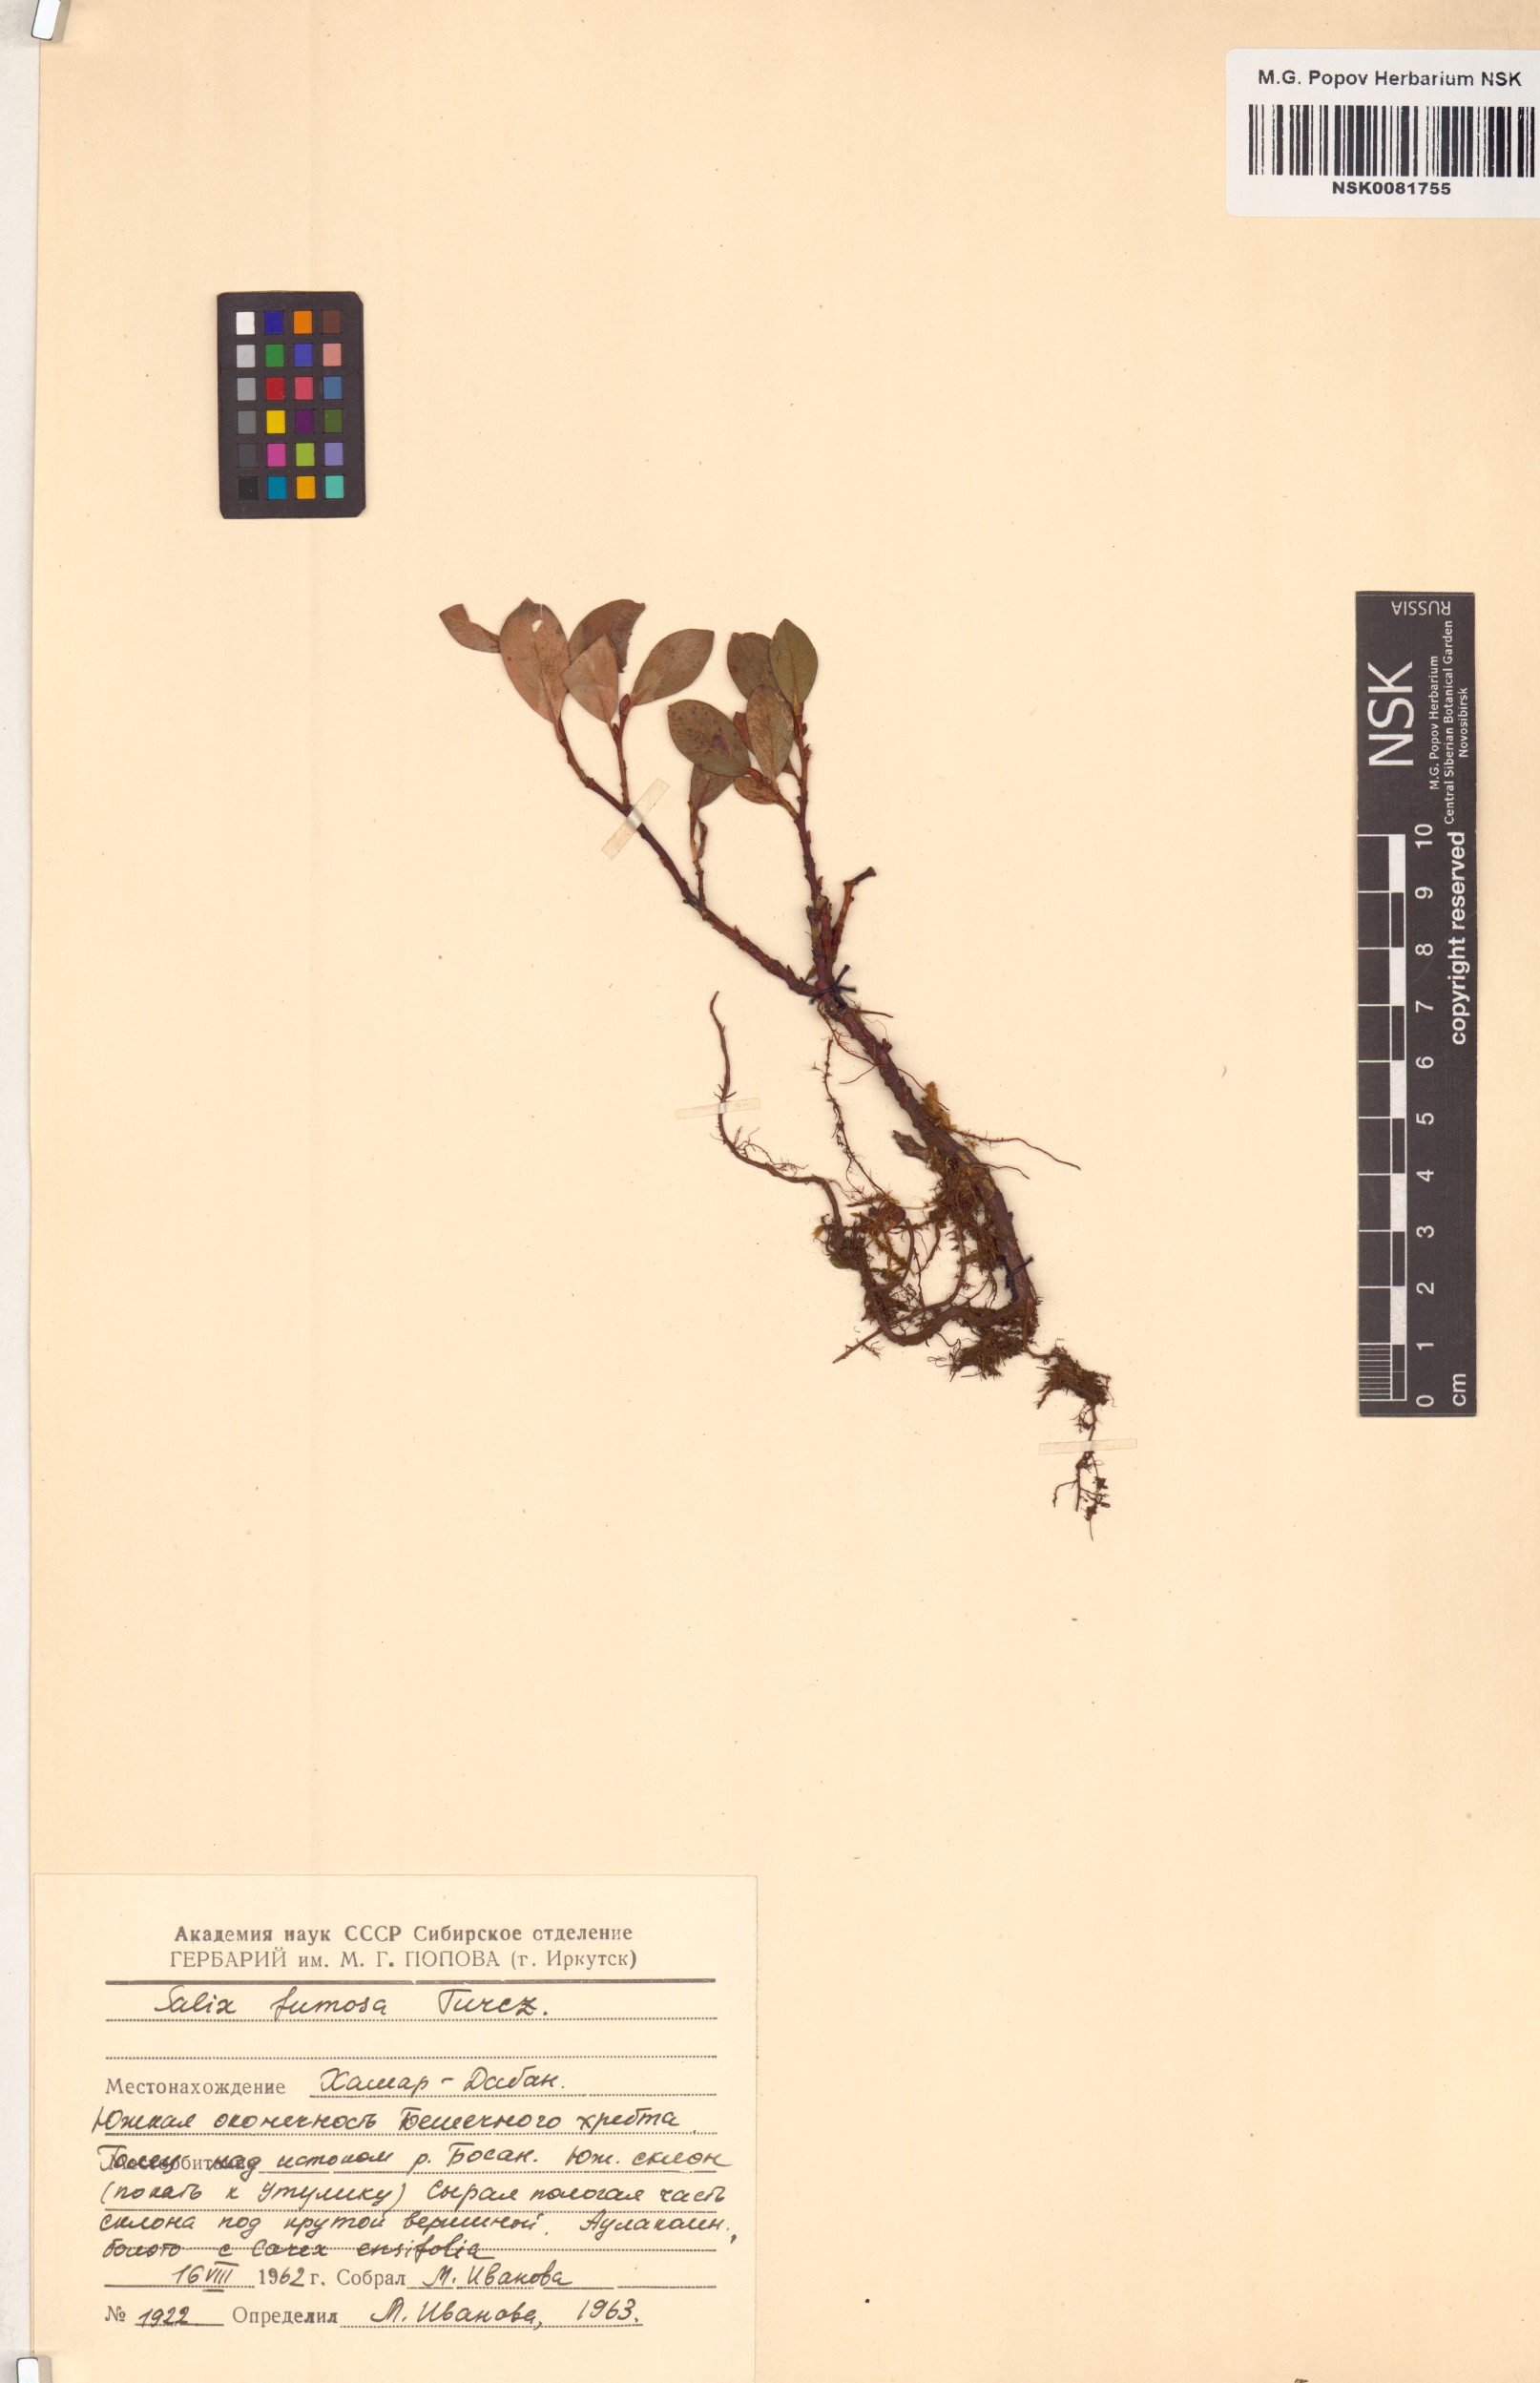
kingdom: Plantae
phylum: Tracheophyta
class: Magnoliopsida
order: Malpighiales
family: Salicaceae
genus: Salix
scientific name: Salix saxatilis
